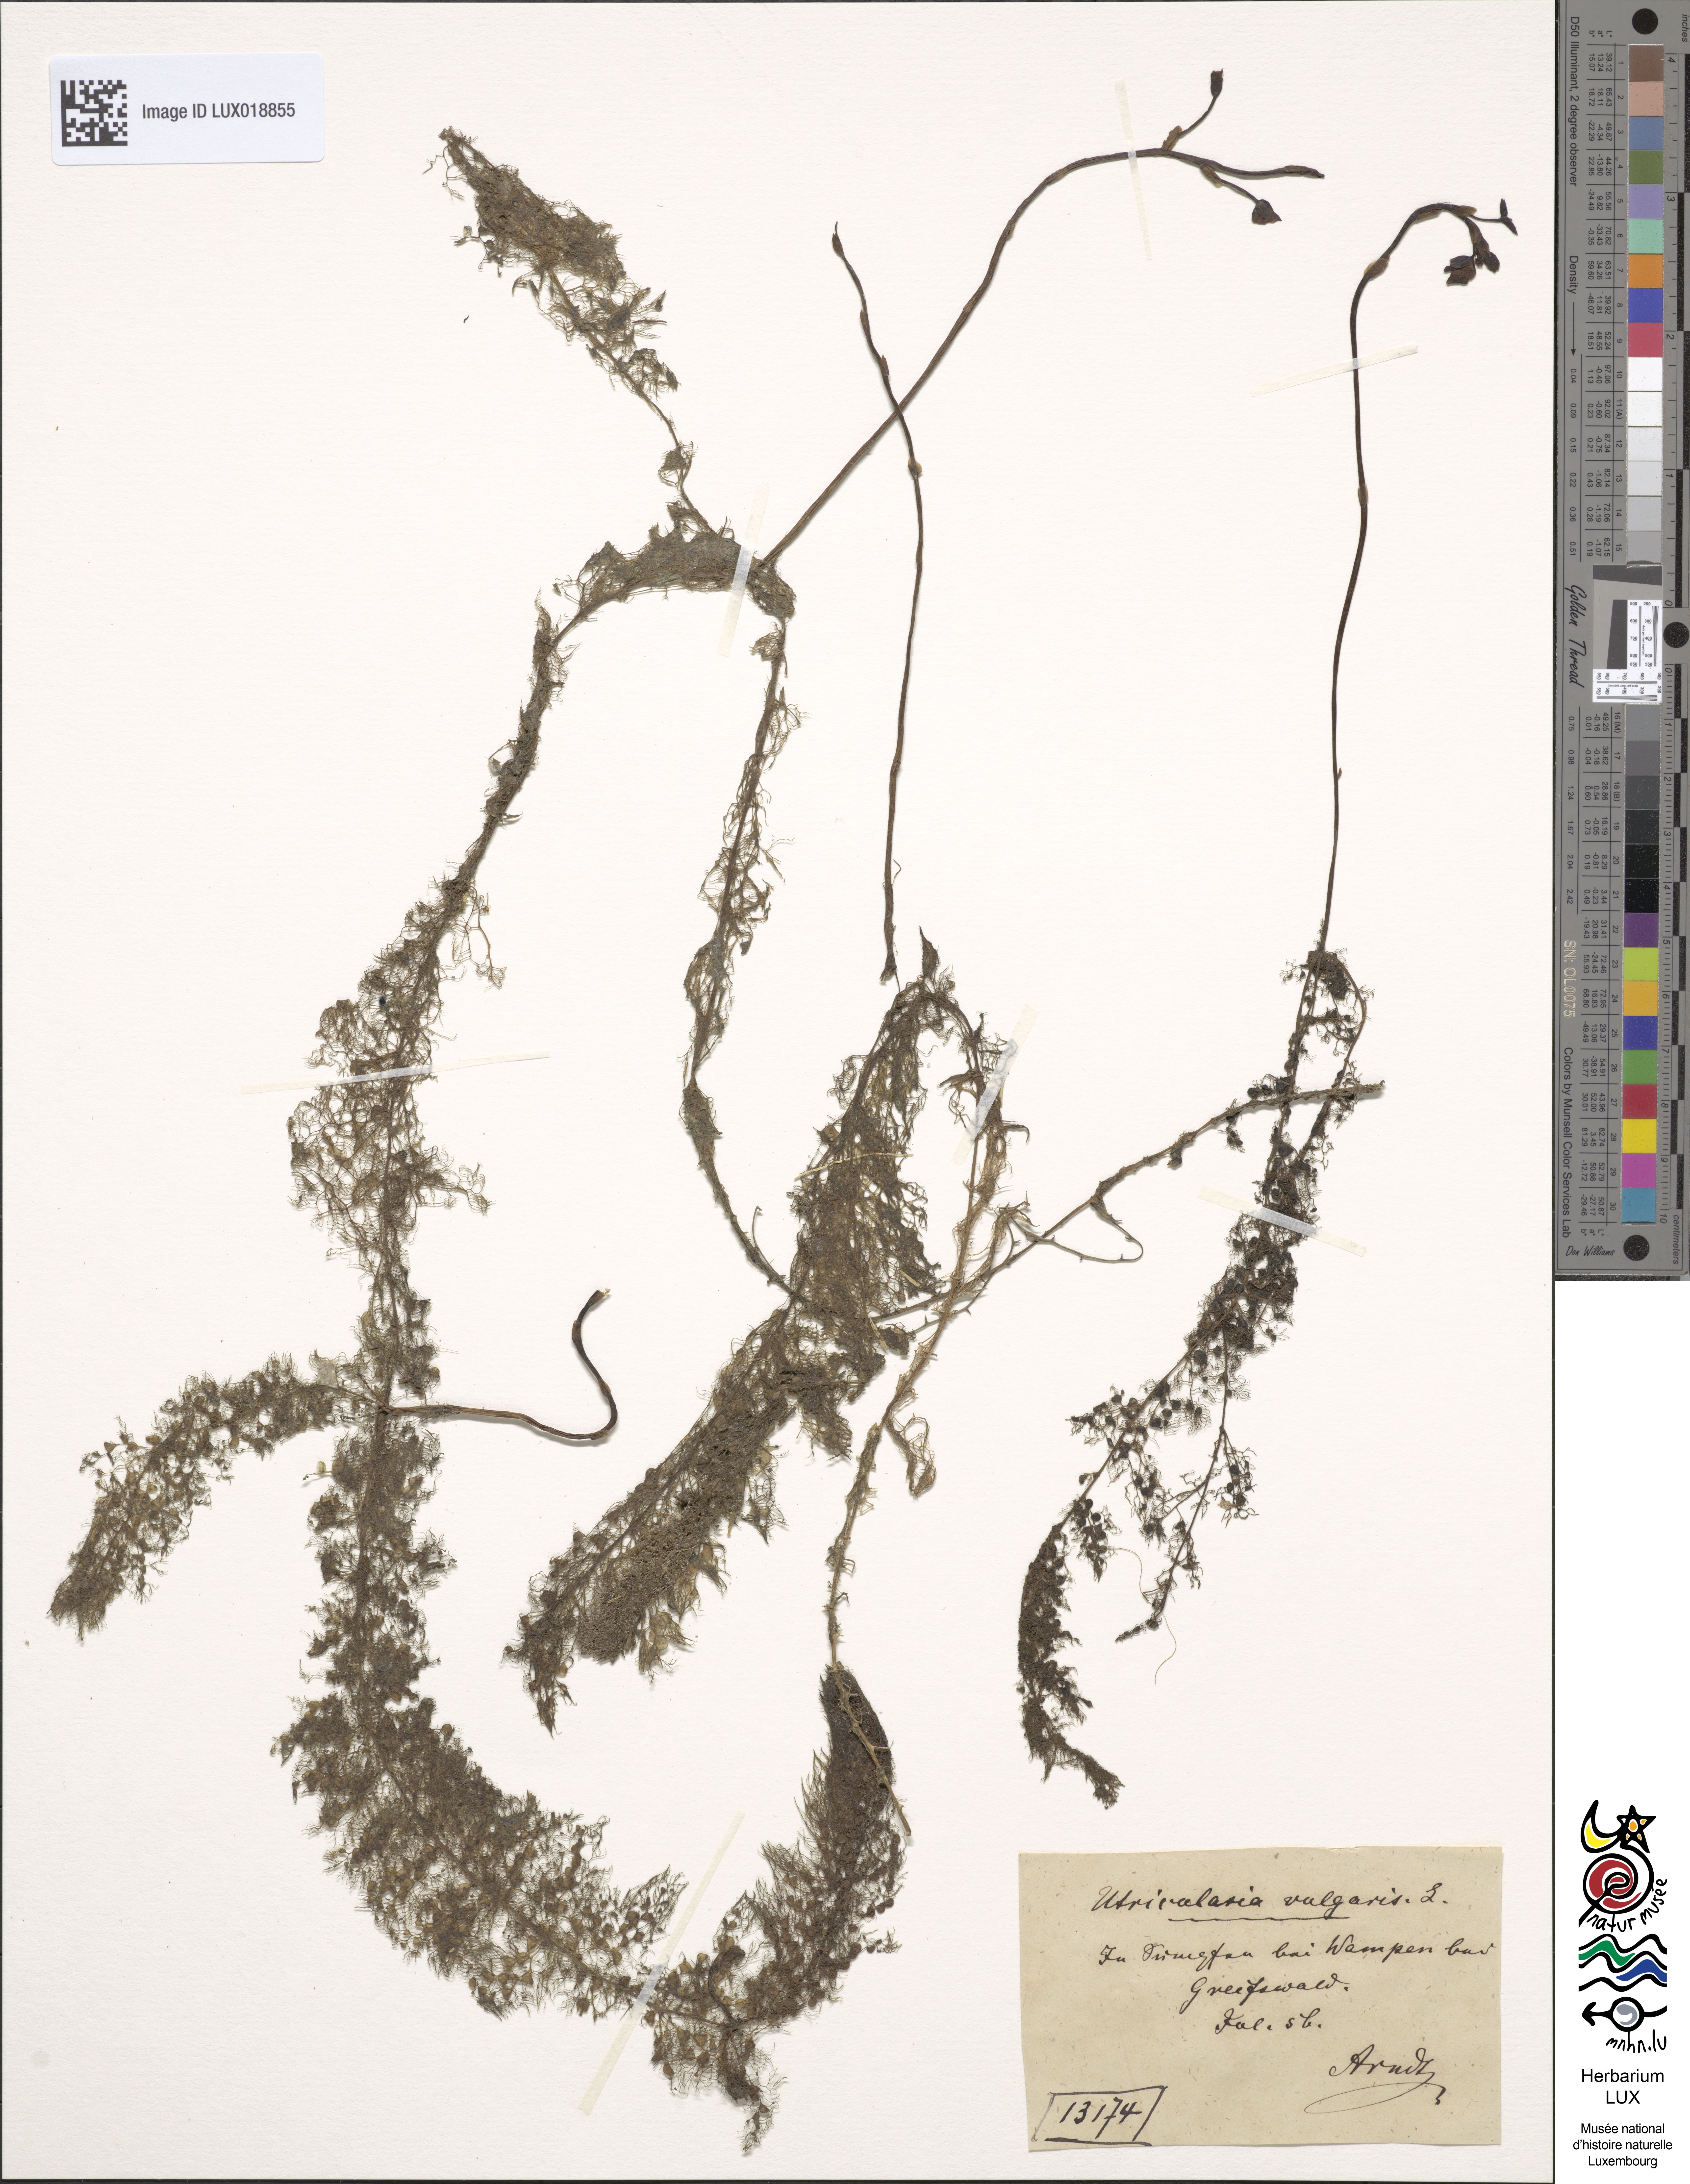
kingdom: Plantae
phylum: Tracheophyta
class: Magnoliopsida
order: Lamiales
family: Lentibulariaceae
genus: Utricularia
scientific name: Utricularia vulgaris
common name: Greater bladderwort
